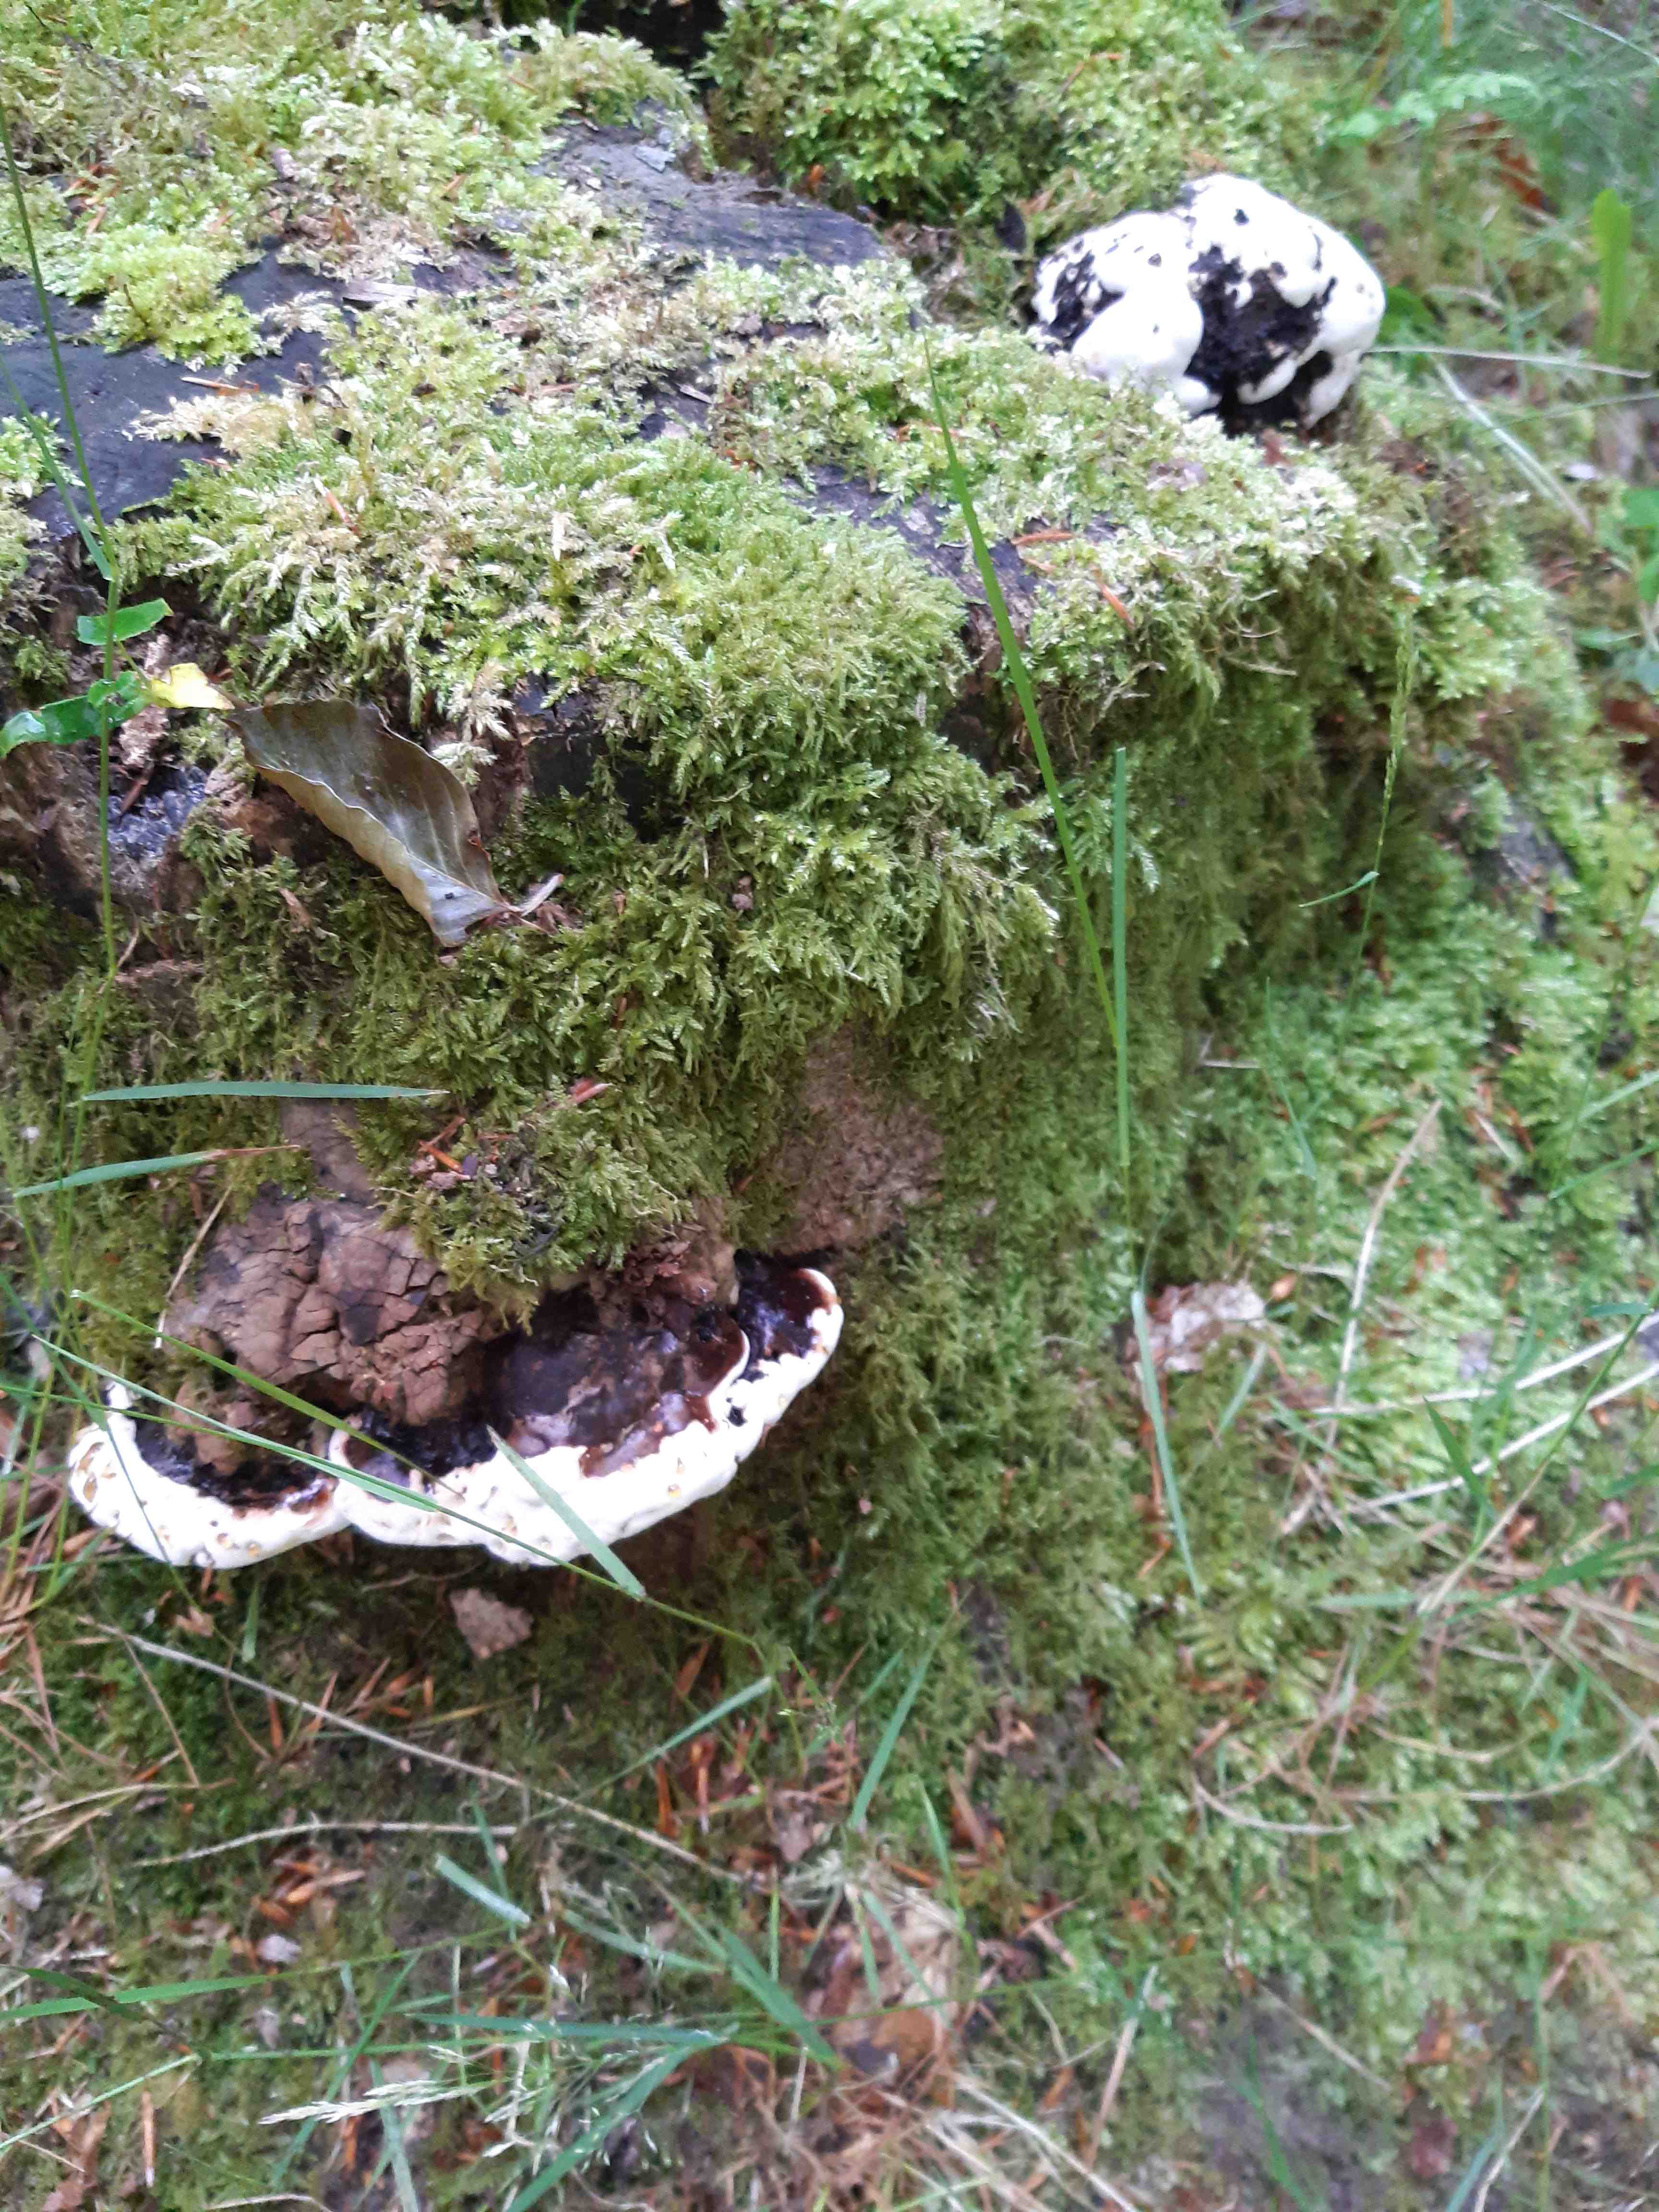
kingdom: Fungi
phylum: Basidiomycota
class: Agaricomycetes
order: Polyporales
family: Polyporaceae
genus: Ganoderma
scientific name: Ganoderma applanatum
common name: flad lakporesvamp
